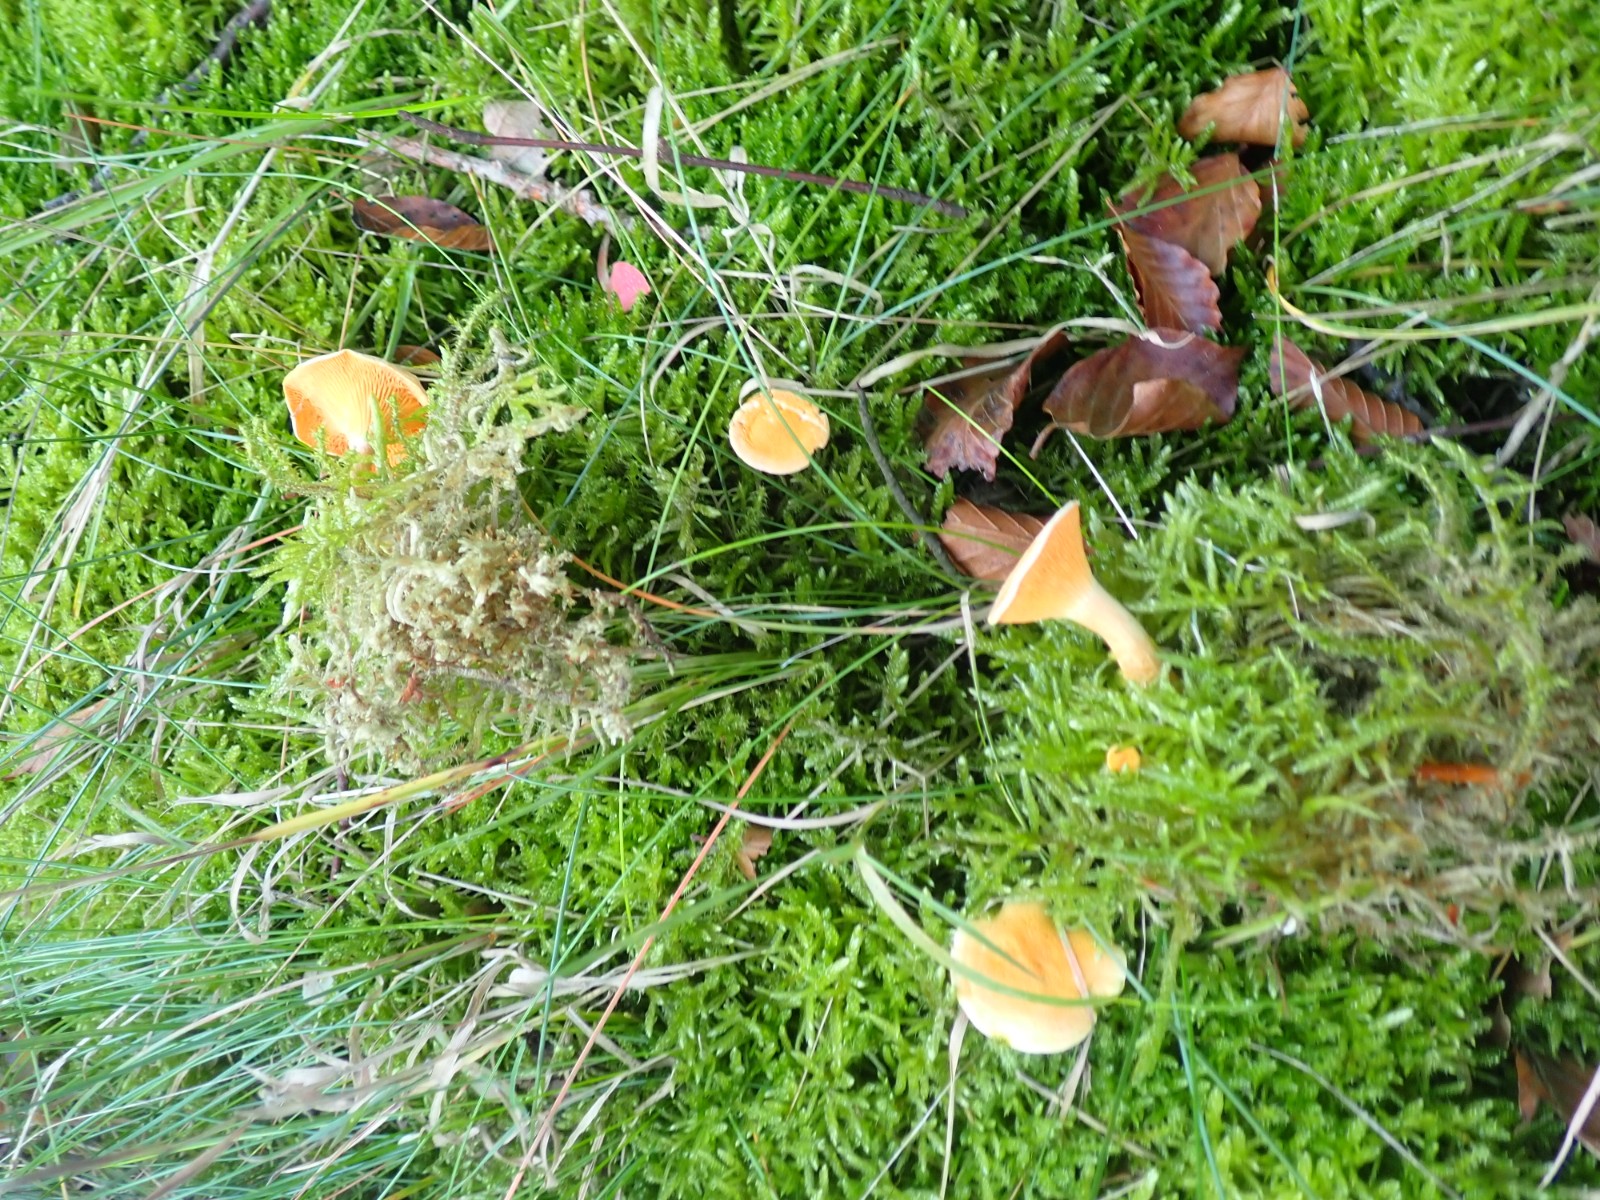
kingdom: Fungi
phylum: Basidiomycota
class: Agaricomycetes
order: Boletales
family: Hygrophoropsidaceae
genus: Hygrophoropsis
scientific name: Hygrophoropsis aurantiaca
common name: almindelig orangekantarel
